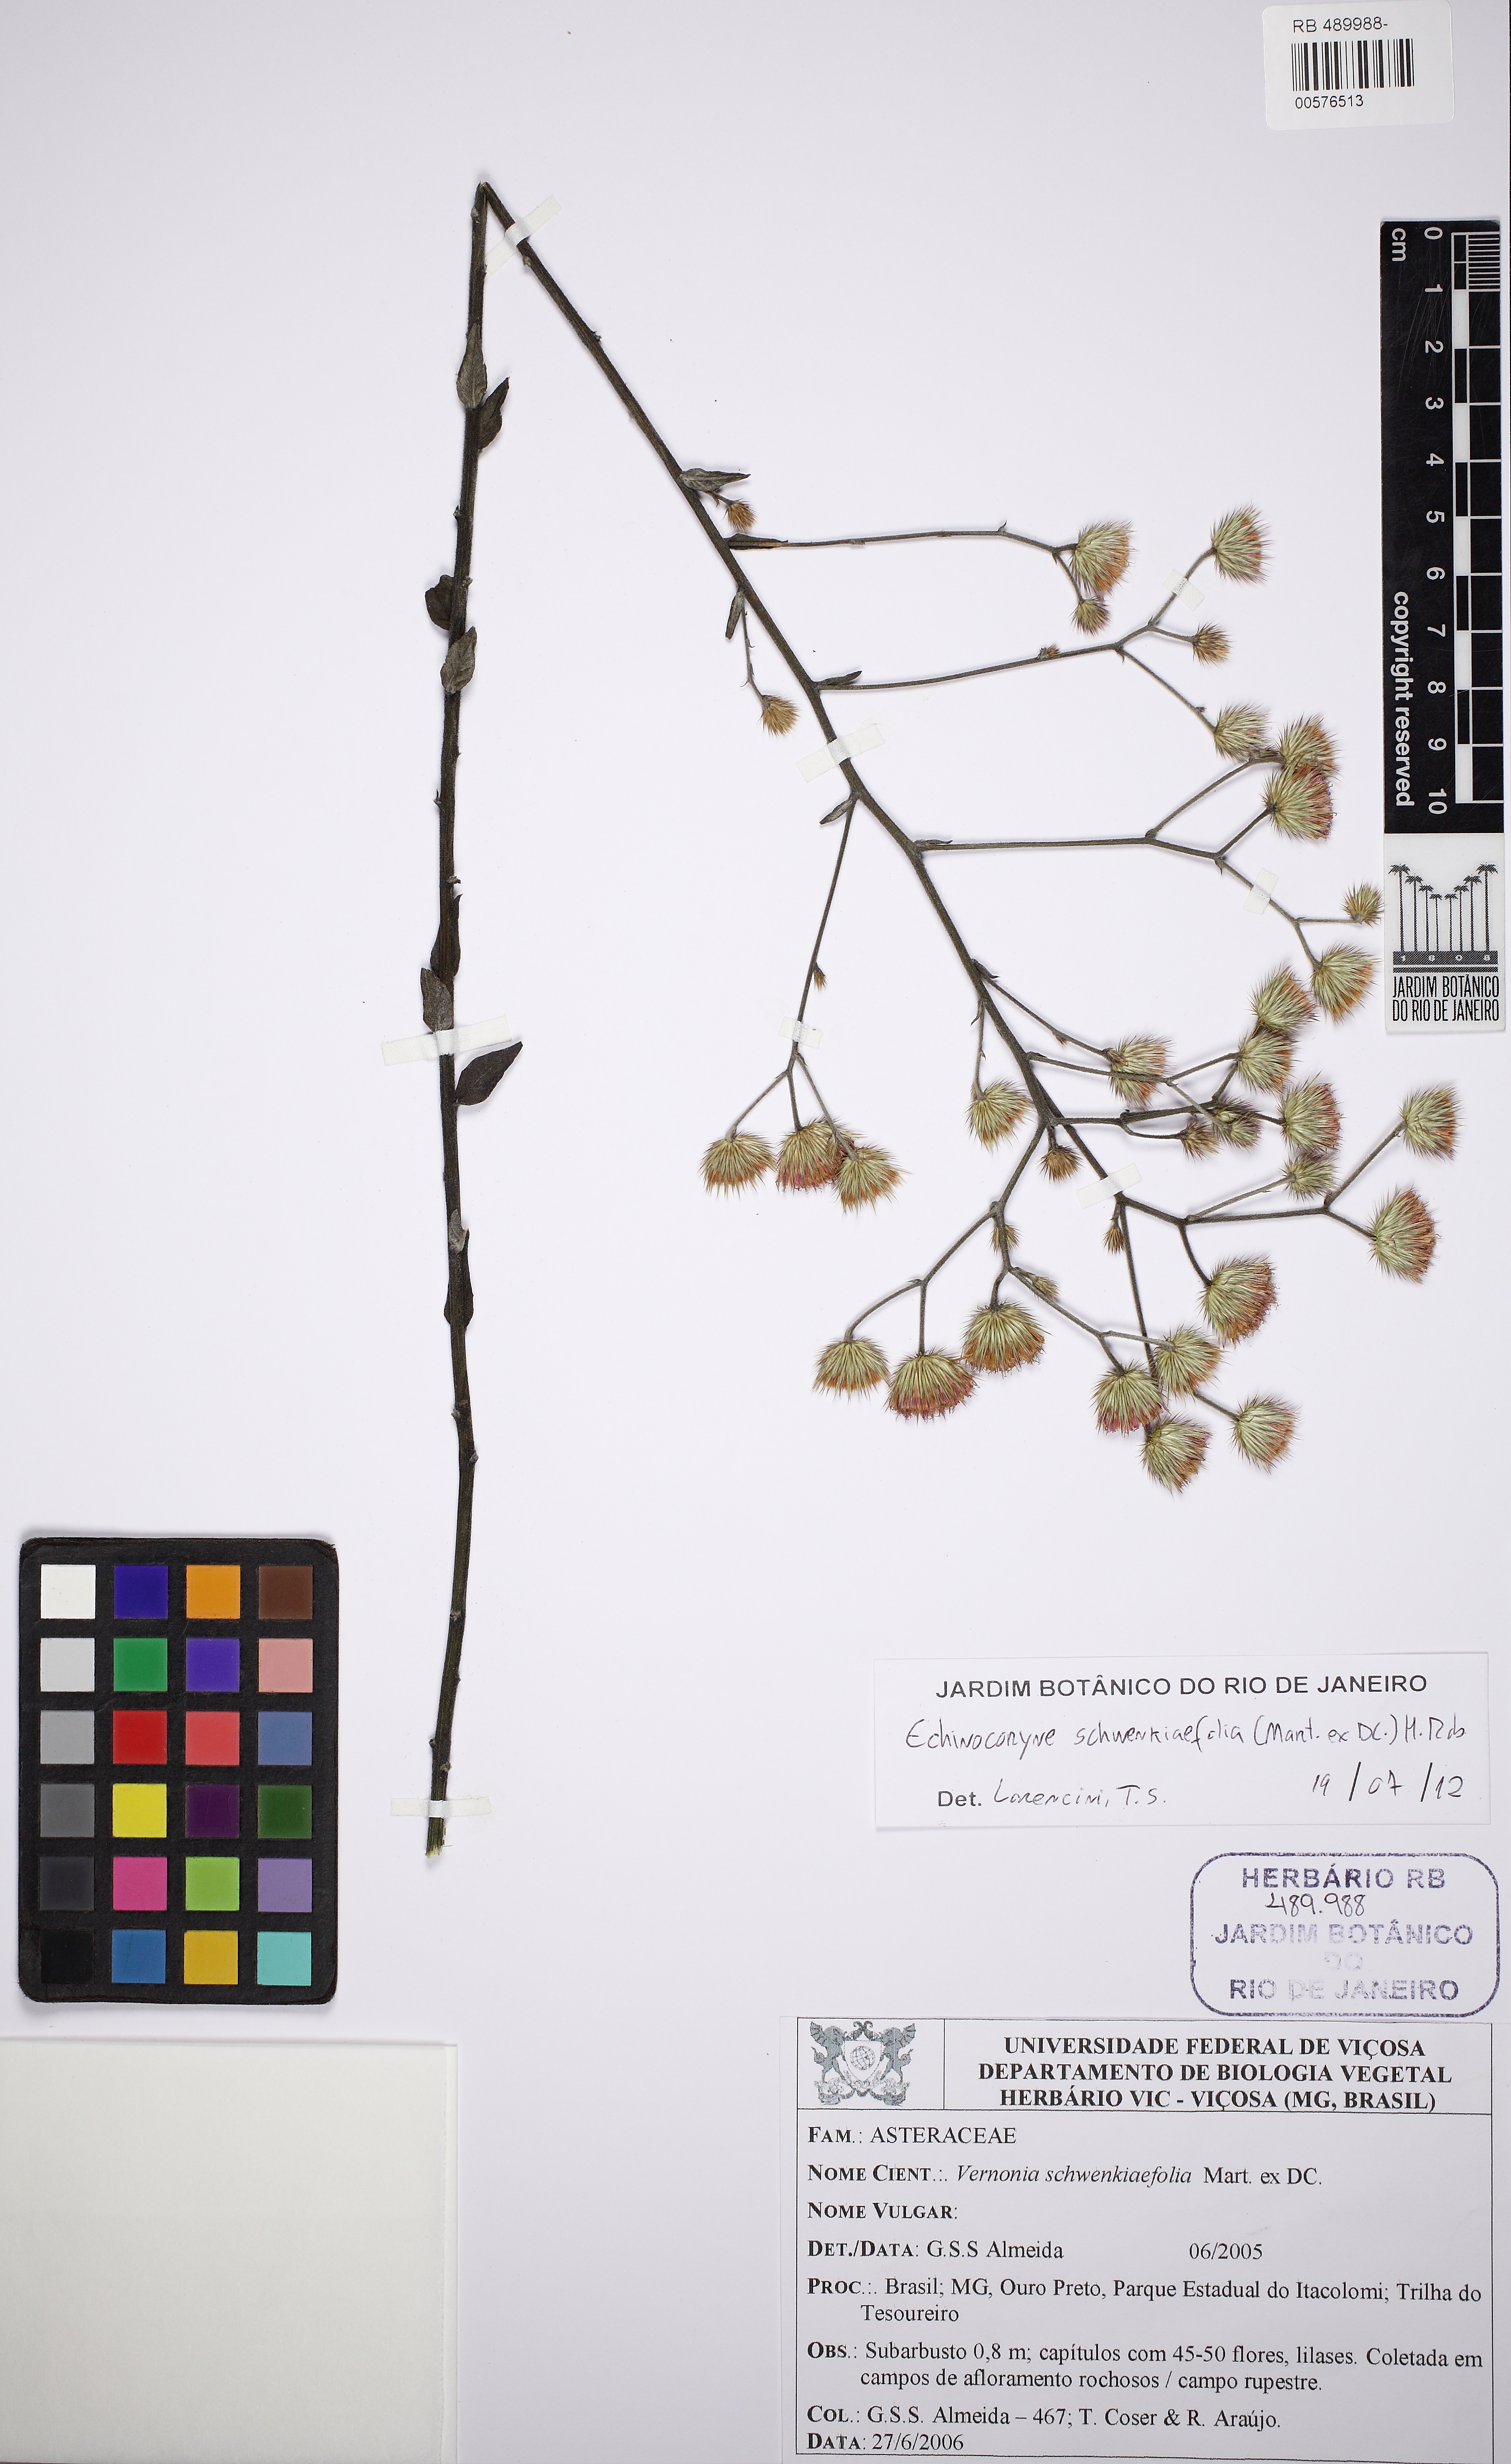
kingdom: Plantae
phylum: Tracheophyta
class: Magnoliopsida
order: Asterales
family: Asteraceae
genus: Echinocoryne
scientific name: Echinocoryne schwenkiaefolia
